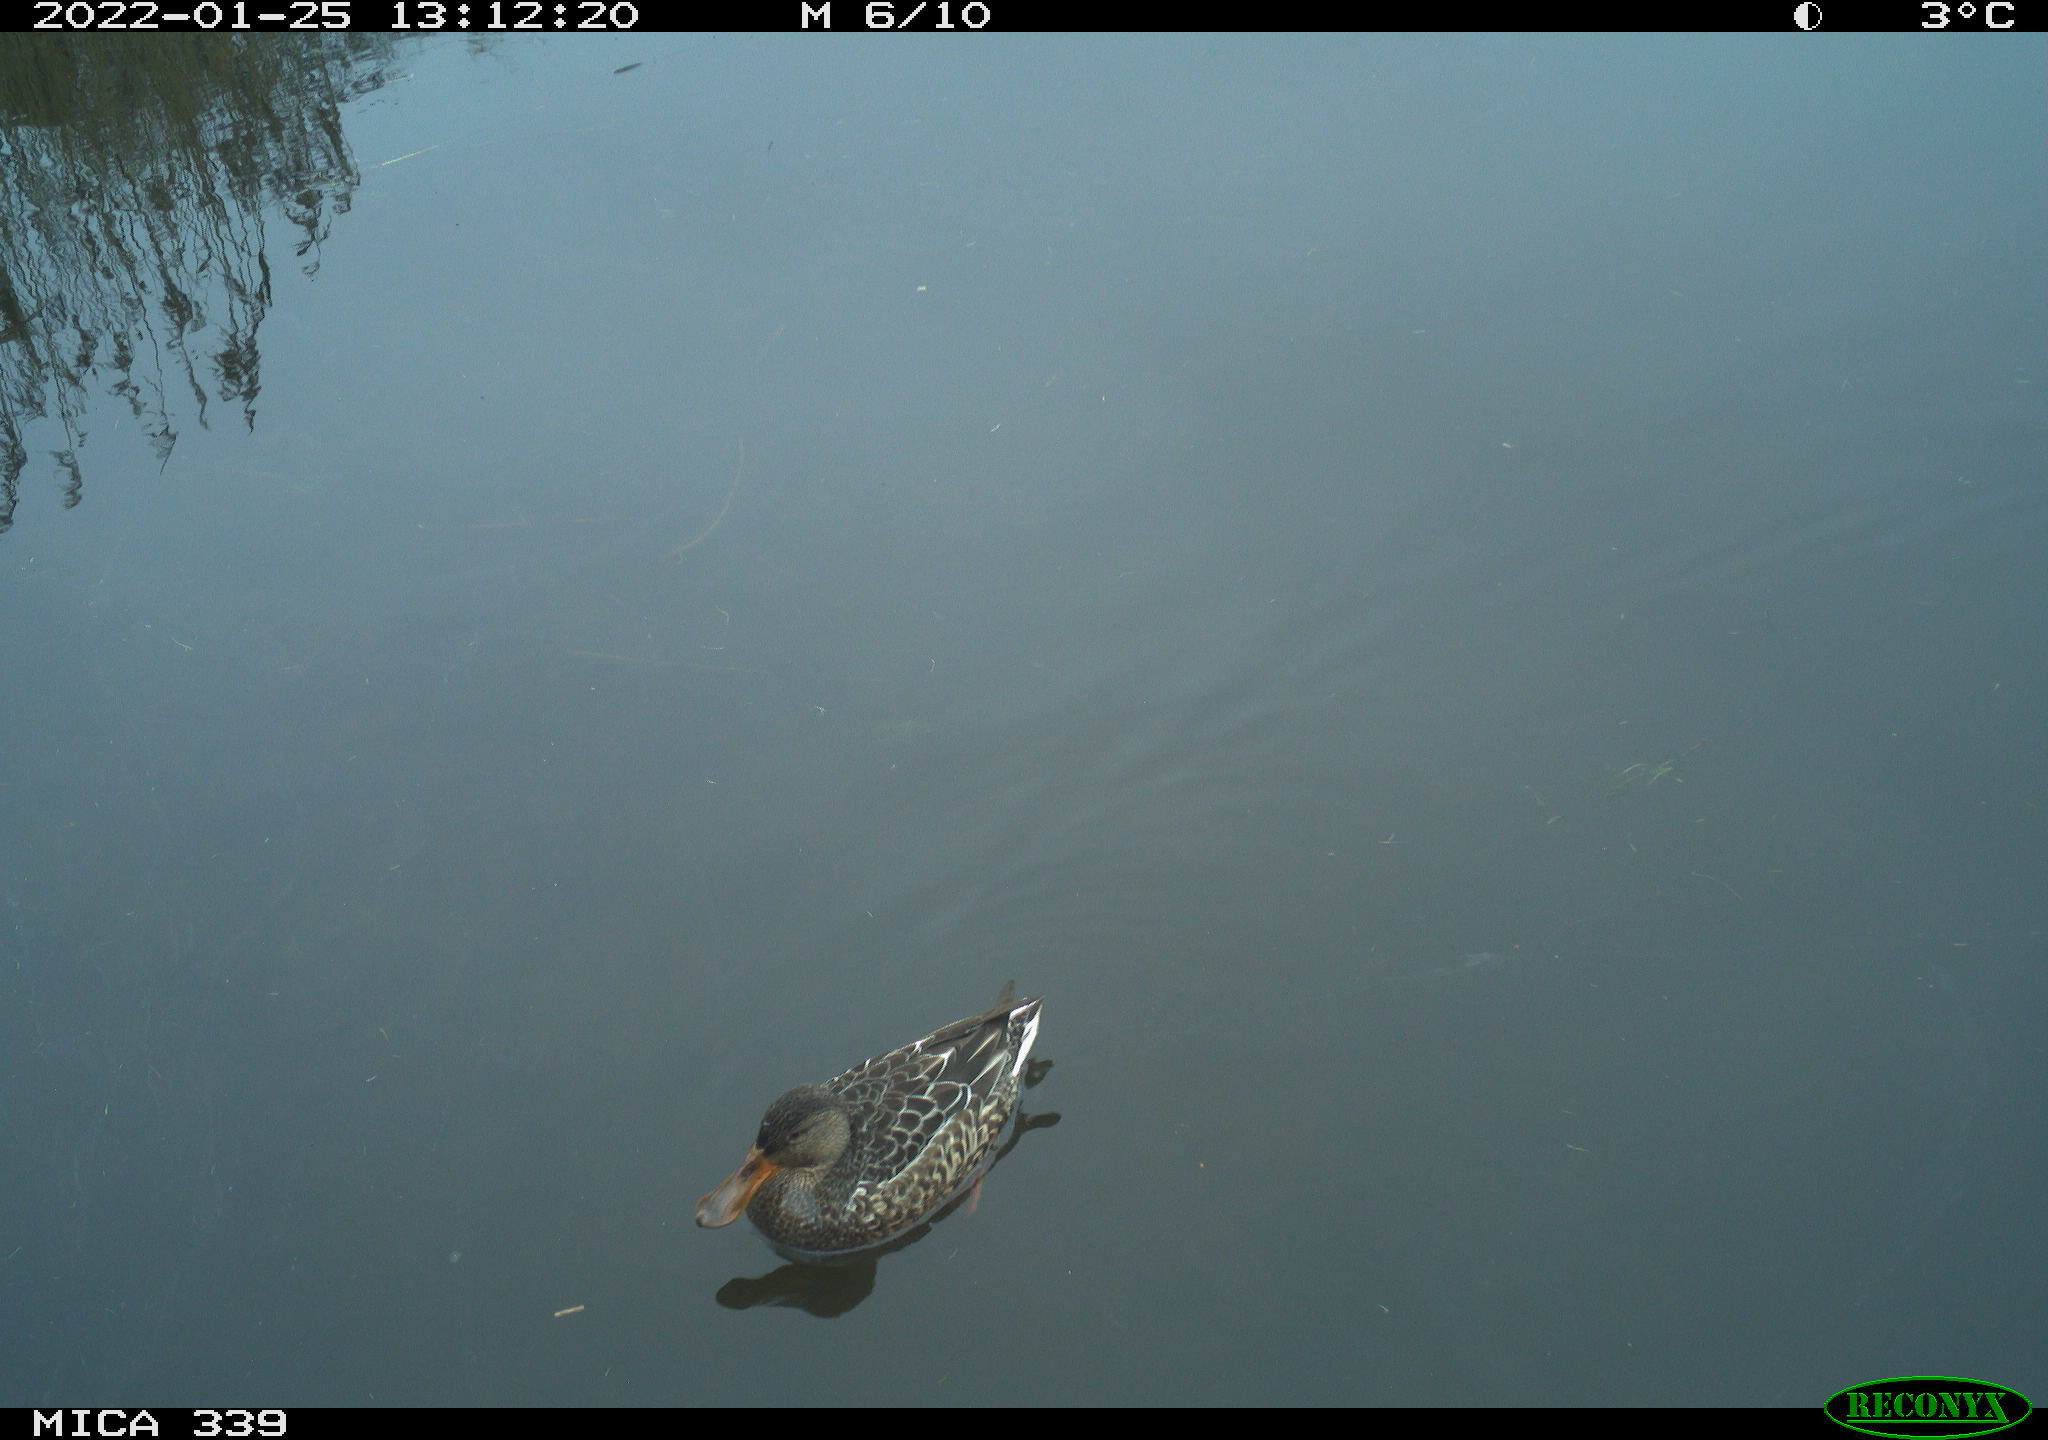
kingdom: Animalia
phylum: Chordata
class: Aves
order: Anseriformes
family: Anatidae
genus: Anas
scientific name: Anas platyrhynchos
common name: Mallard
